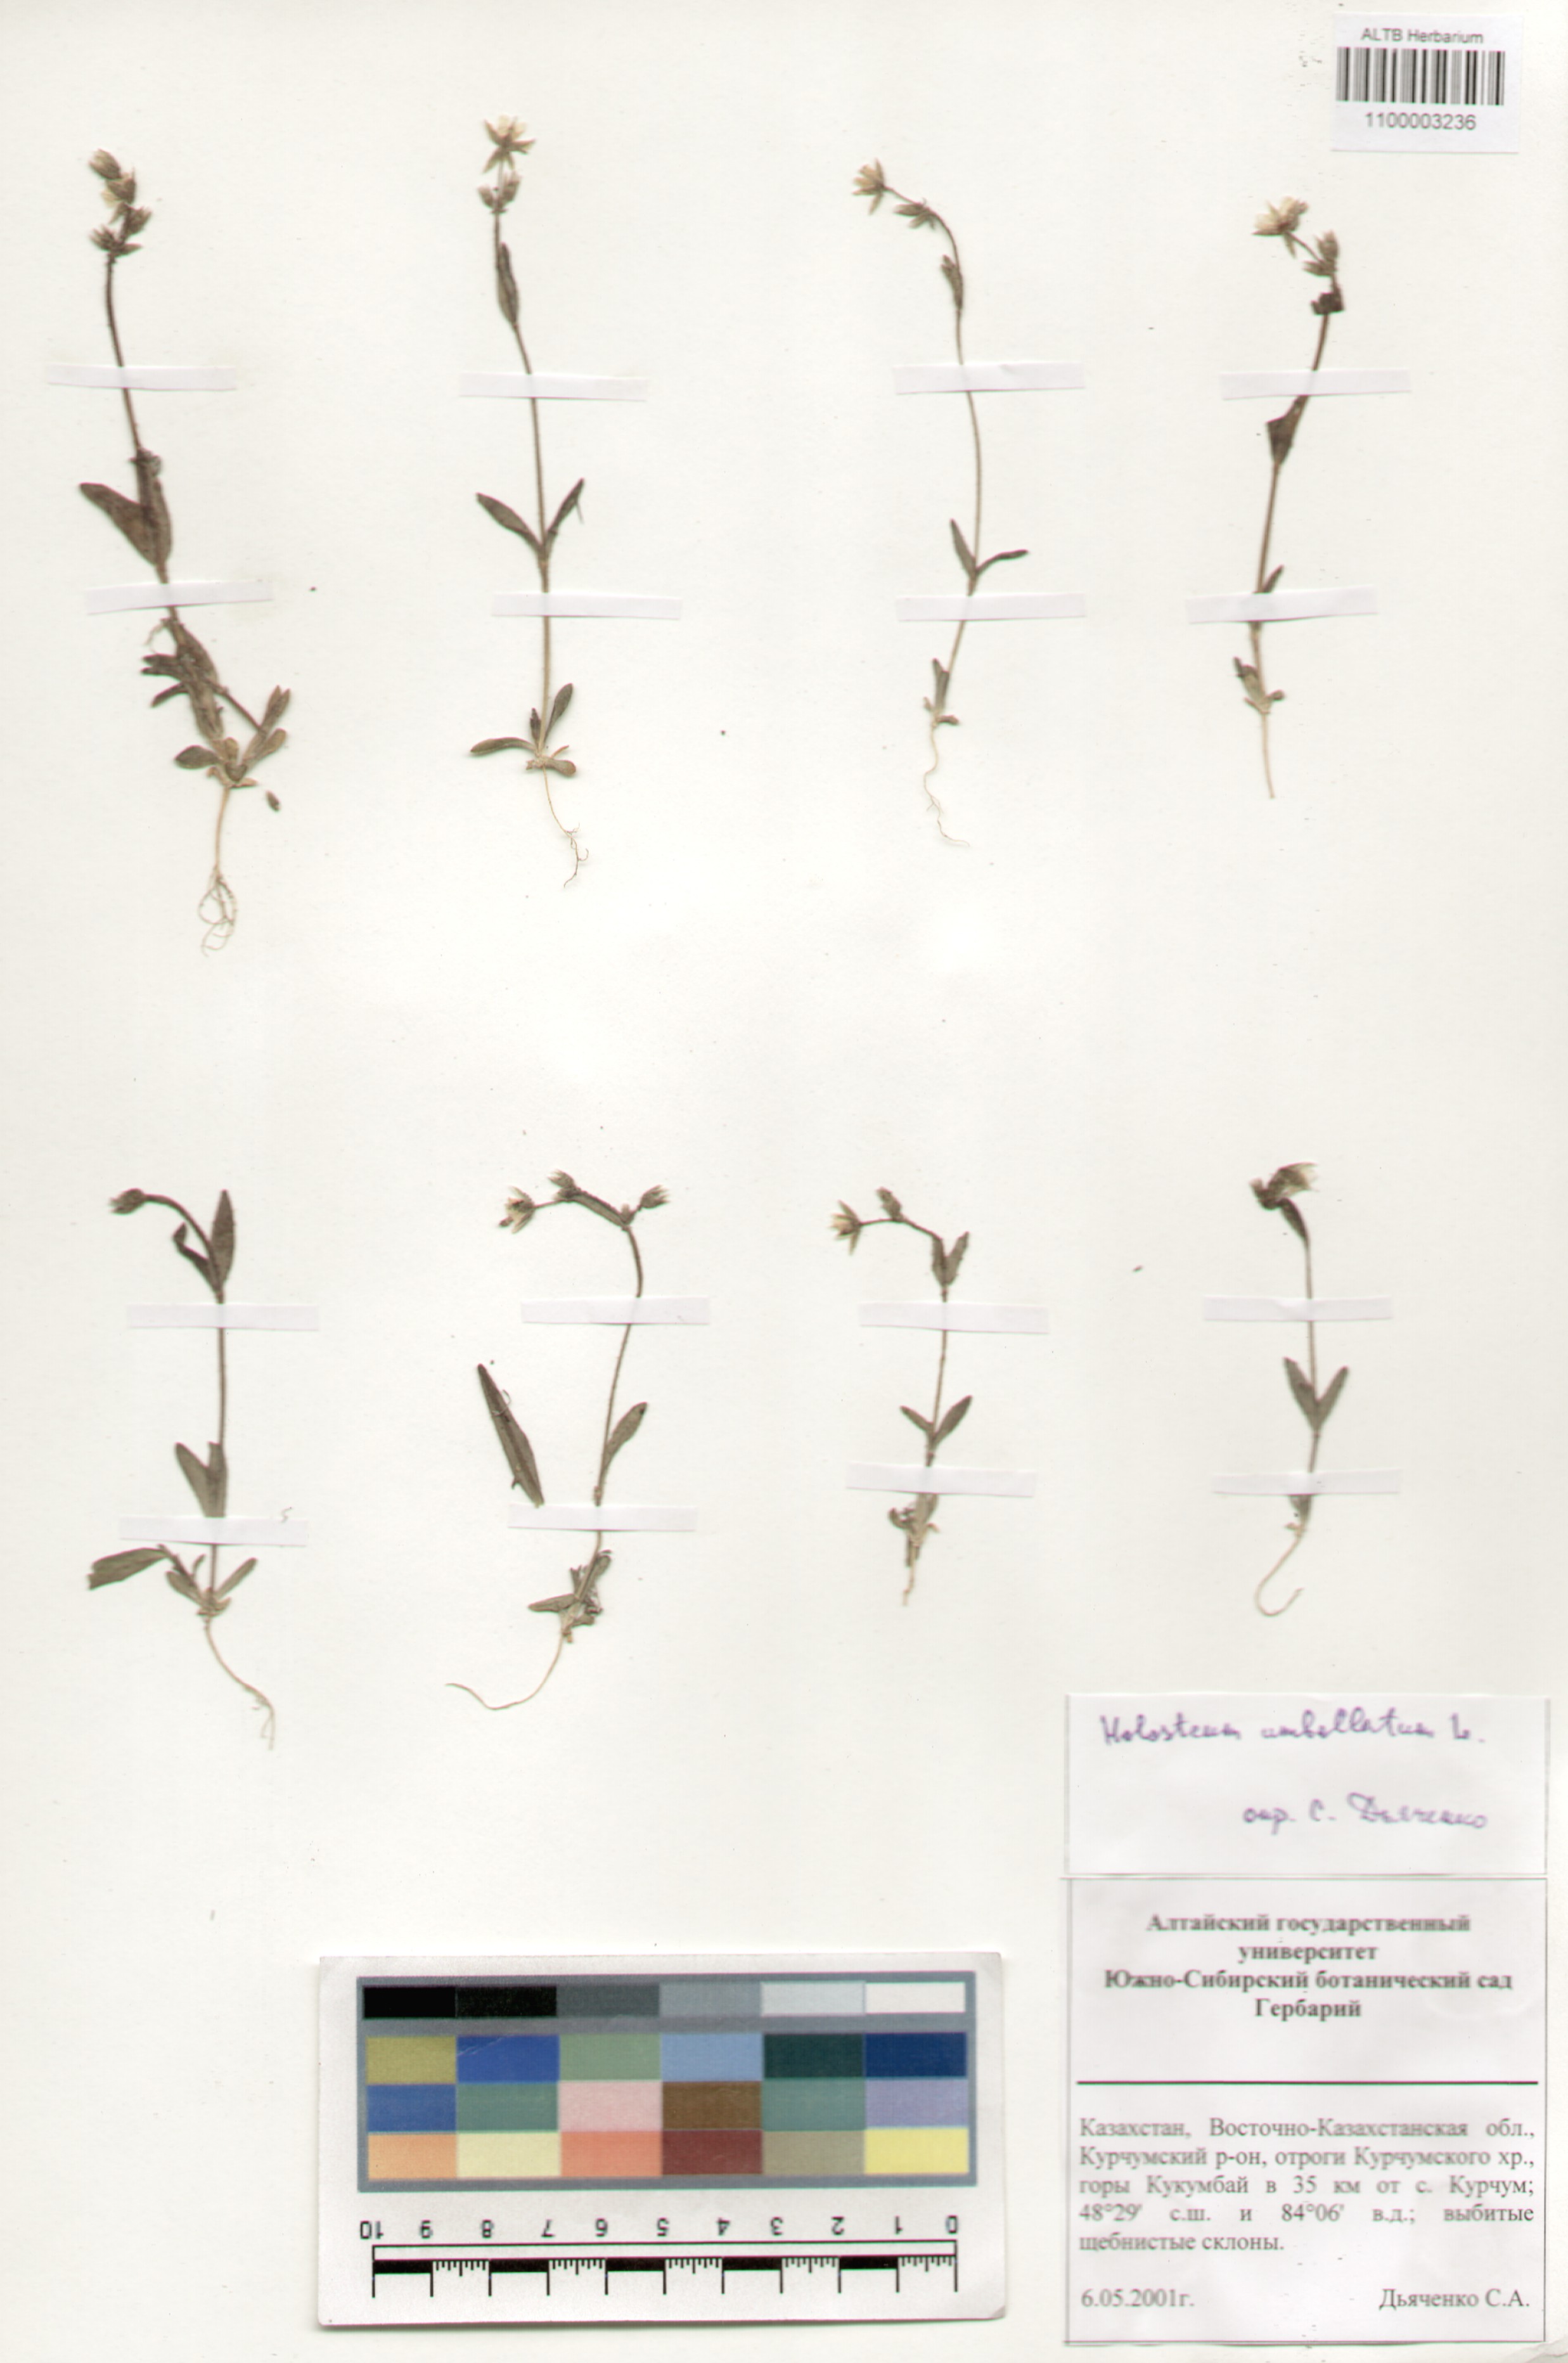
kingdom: Plantae
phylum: Tracheophyta
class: Magnoliopsida
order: Caryophyllales
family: Caryophyllaceae
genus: Holosteum
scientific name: Holosteum umbellatum
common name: Jagged chickweed
